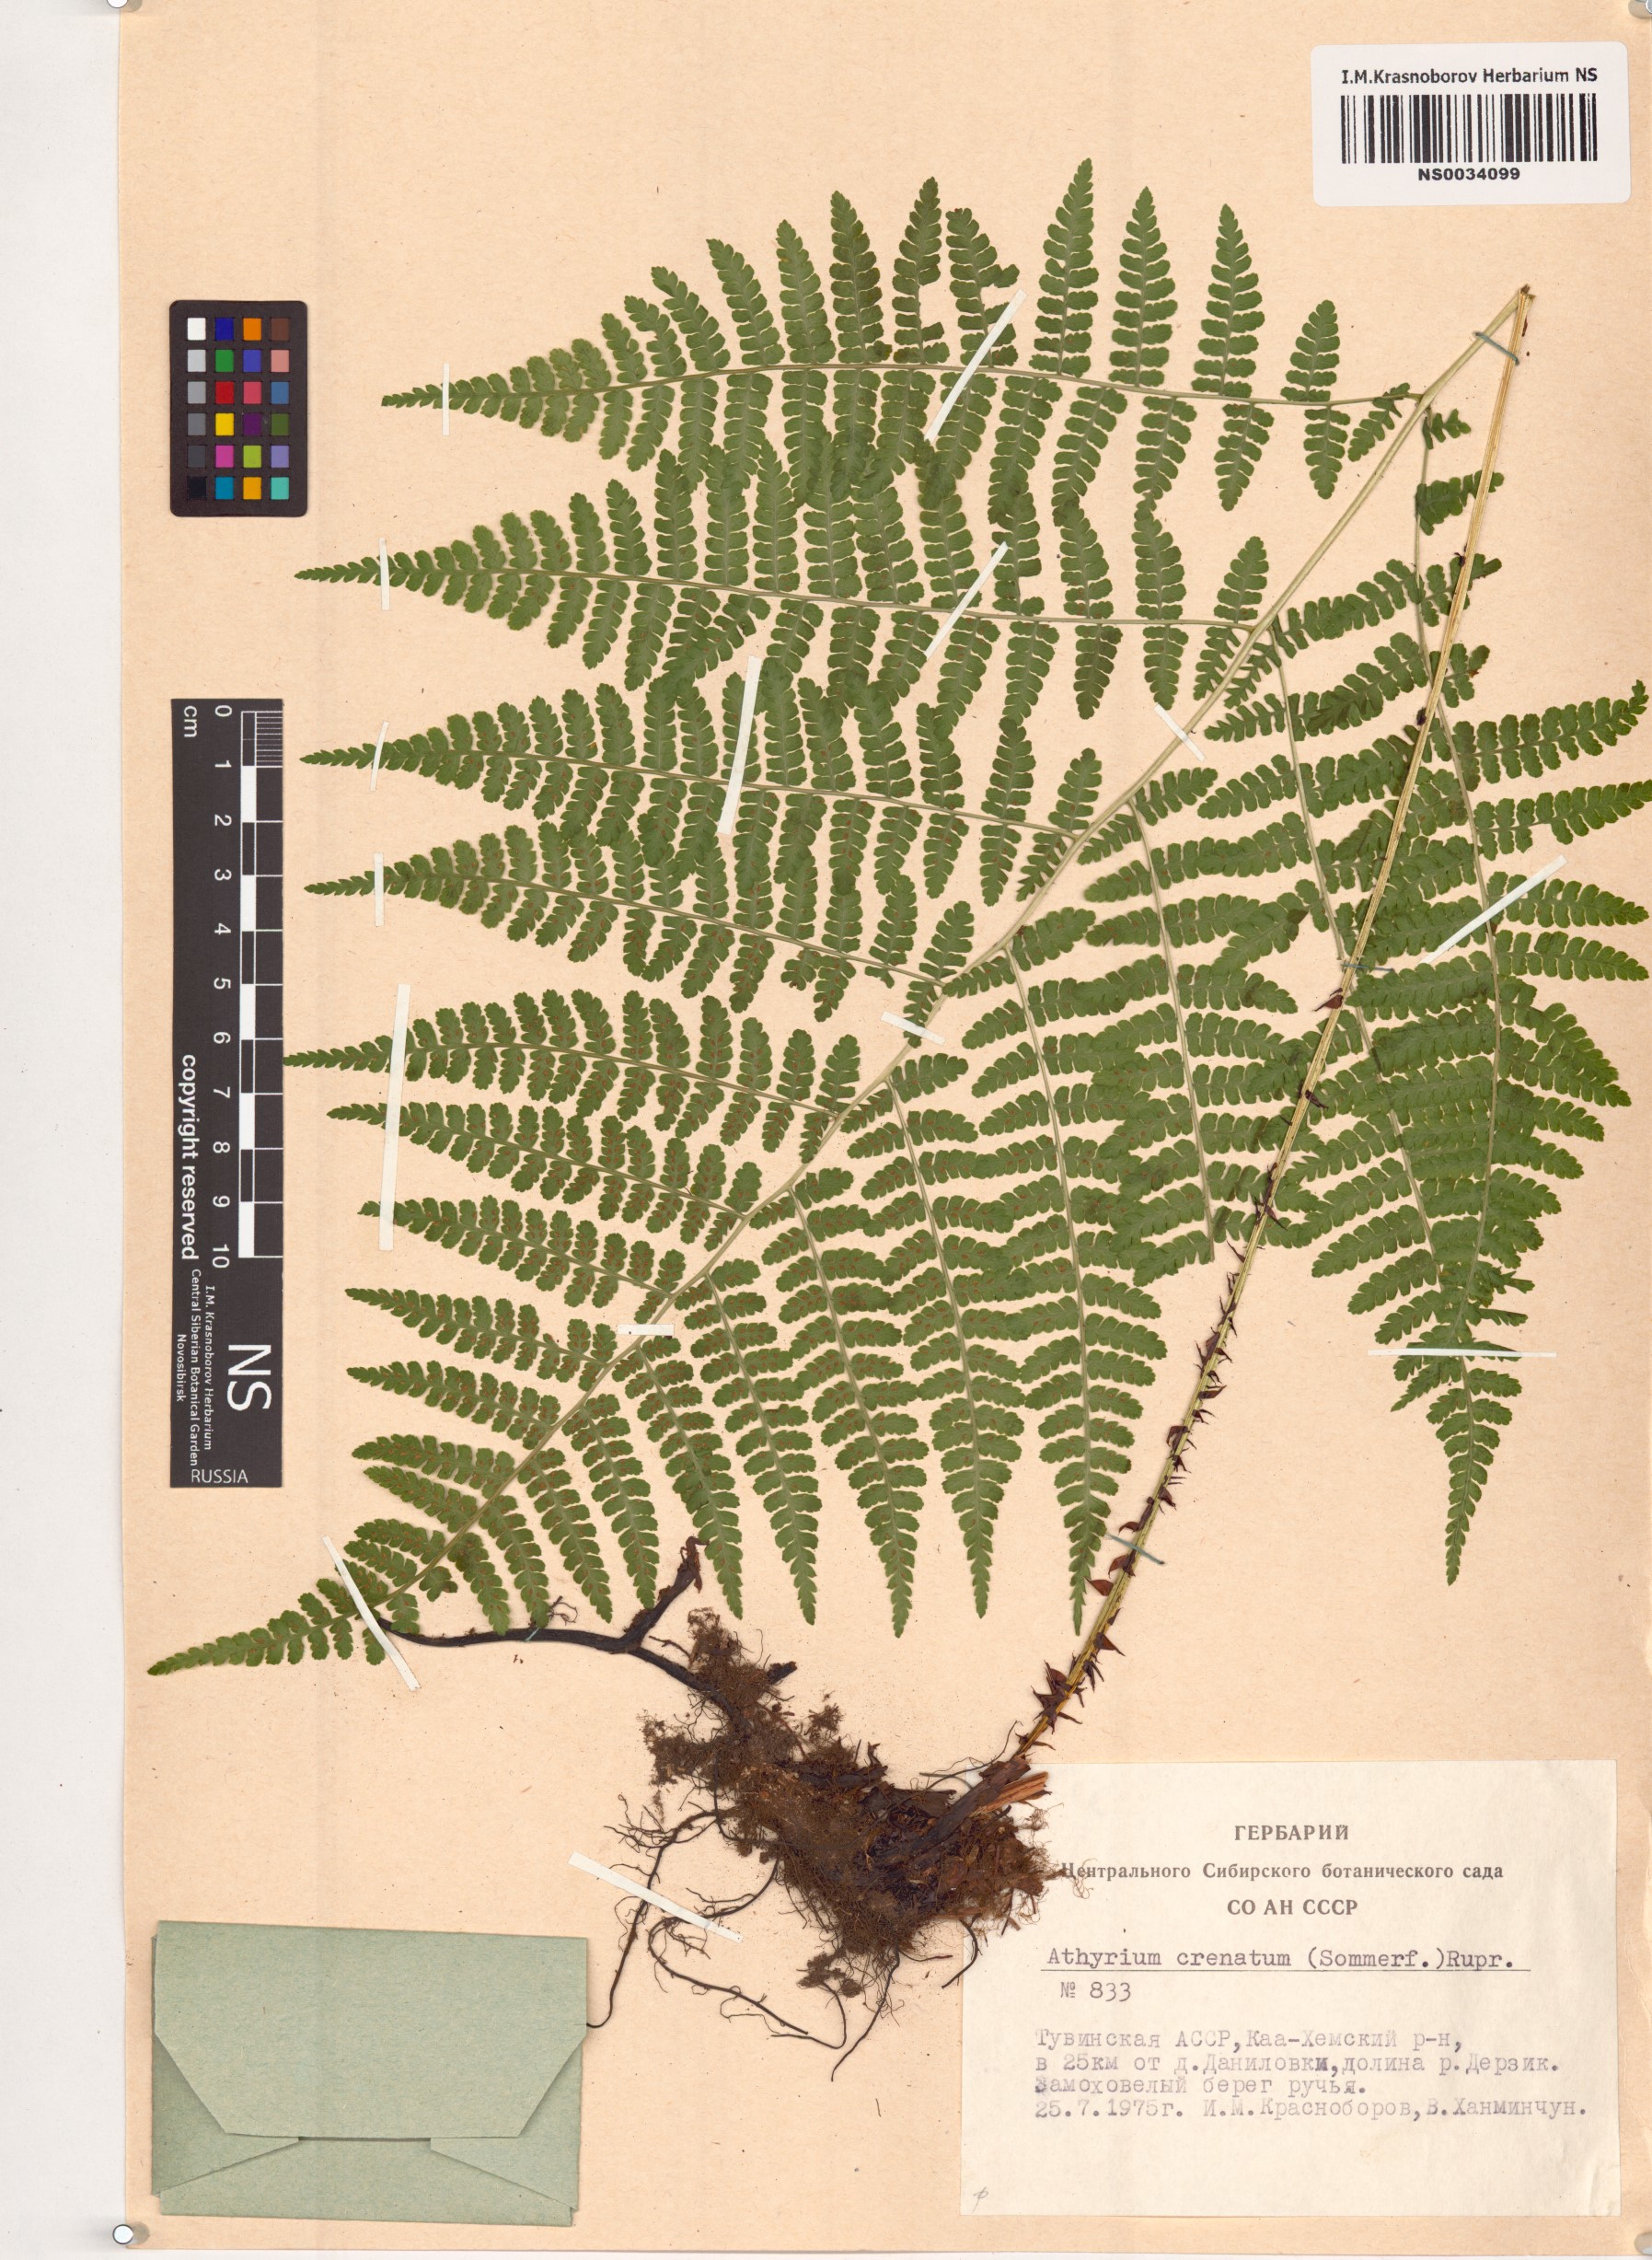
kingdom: Plantae
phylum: Tracheophyta
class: Polypodiopsida
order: Polypodiales
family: Athyriaceae
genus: Diplazium
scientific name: Diplazium sibiricum
